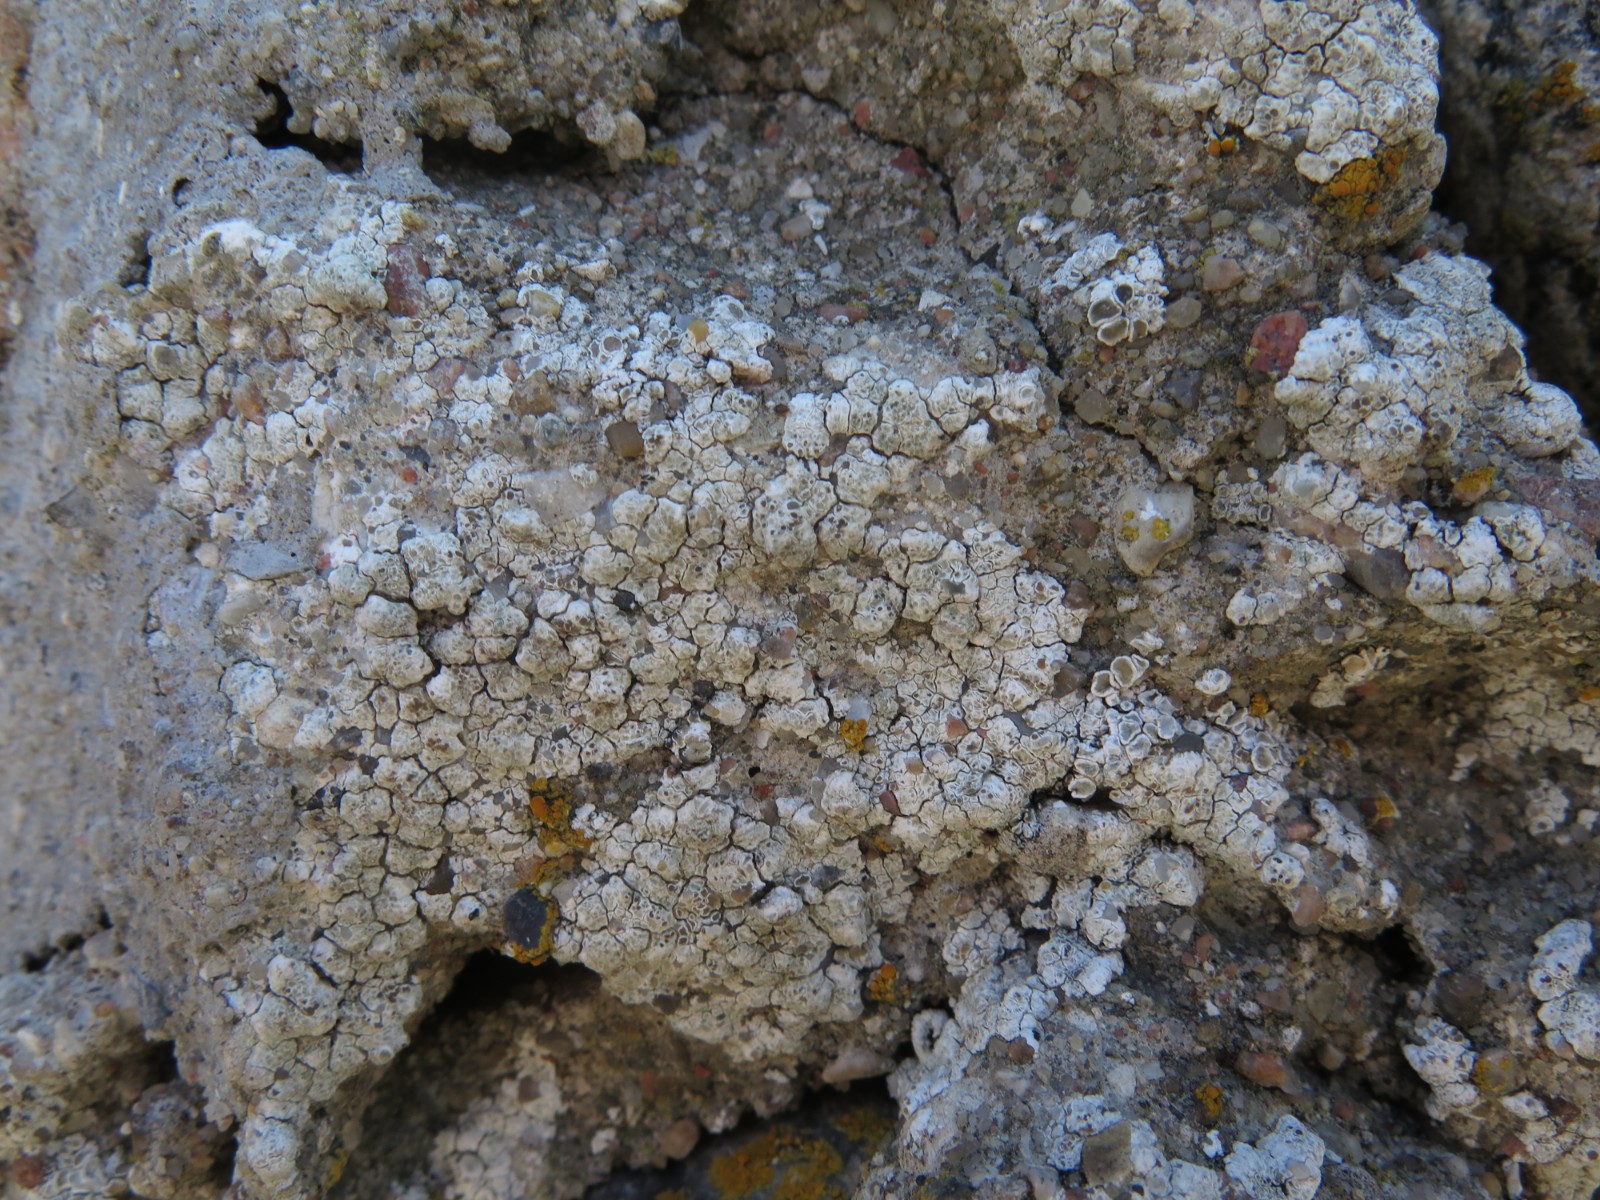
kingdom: Fungi
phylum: Ascomycota
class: Lecanoromycetes
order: Lecanorales
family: Lecanoraceae
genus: Polyozosia
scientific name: Polyozosia albescens
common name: cement-kantskivelav
